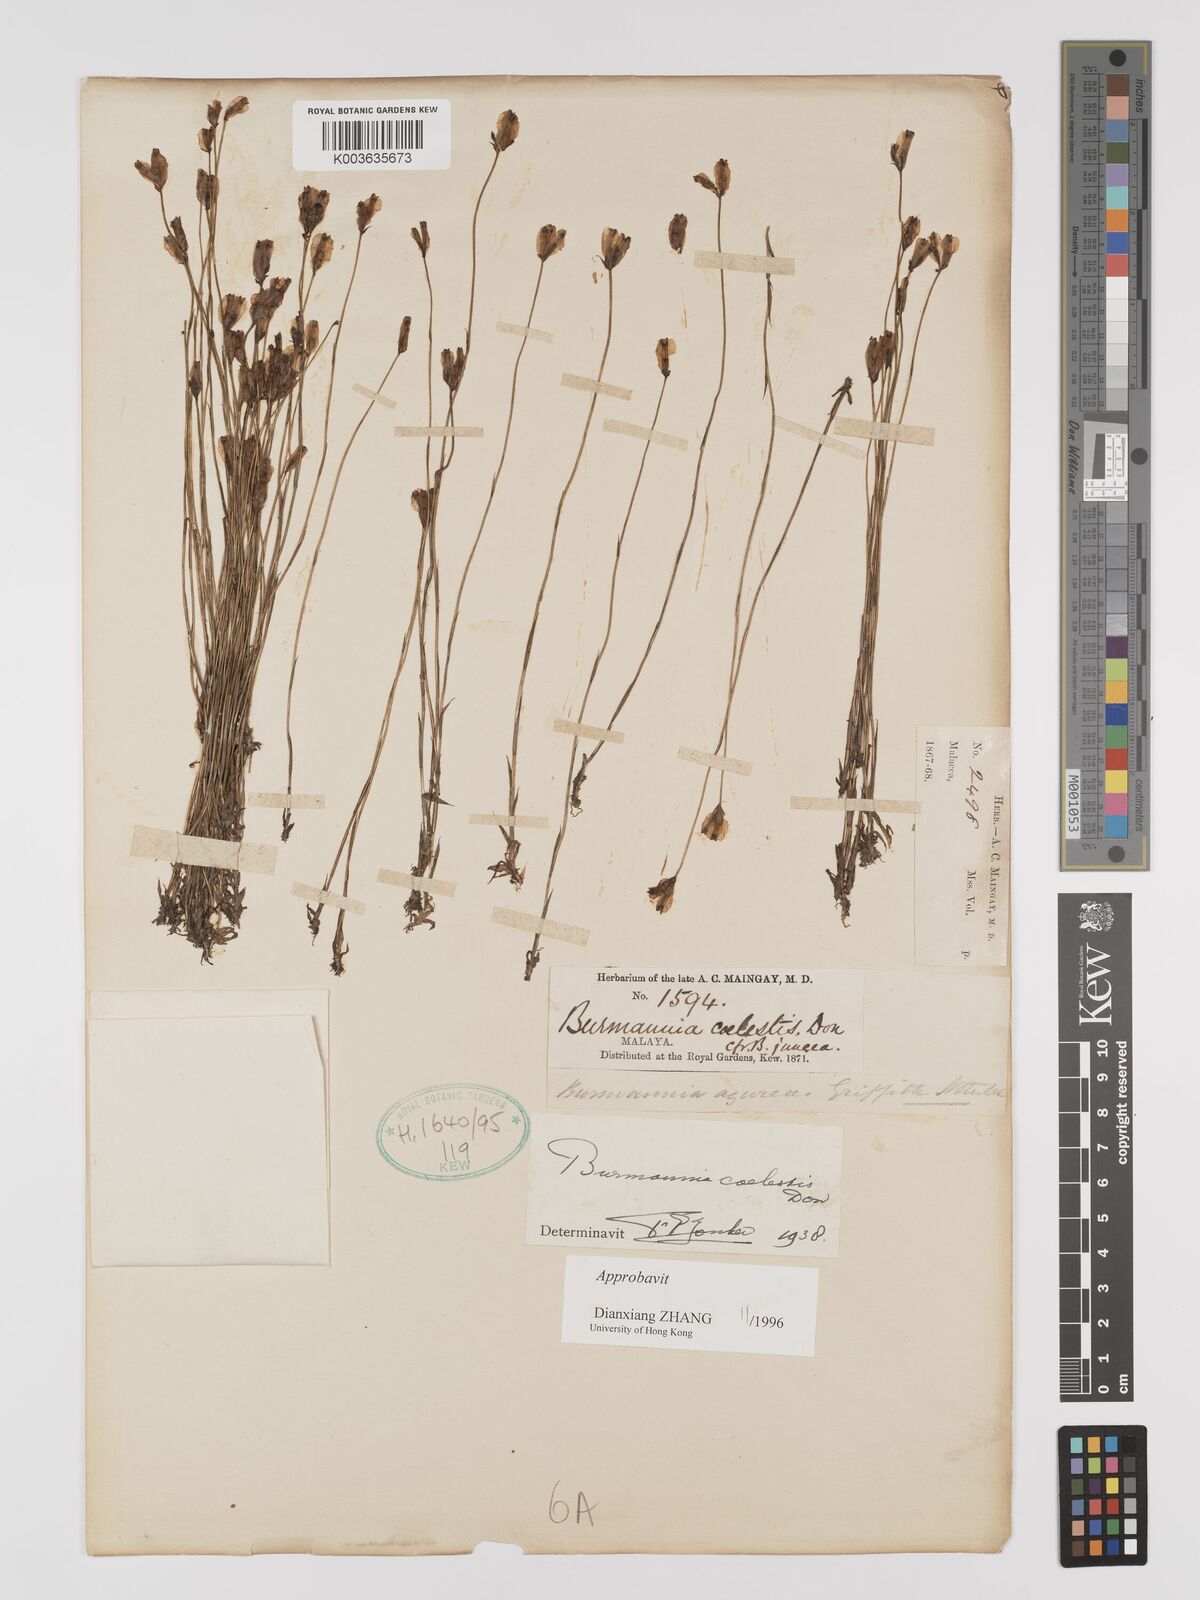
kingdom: Plantae
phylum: Tracheophyta
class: Liliopsida
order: Dioscoreales
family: Burmanniaceae
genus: Burmannia
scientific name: Burmannia coelestis
